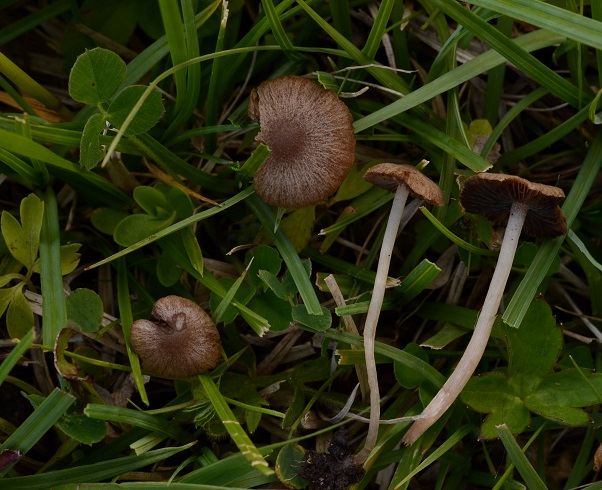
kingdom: Fungi
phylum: Basidiomycota
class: Agaricomycetes
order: Agaricales
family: Psathyrellaceae
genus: Psathyrella
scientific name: Psathyrella panaeoloides
